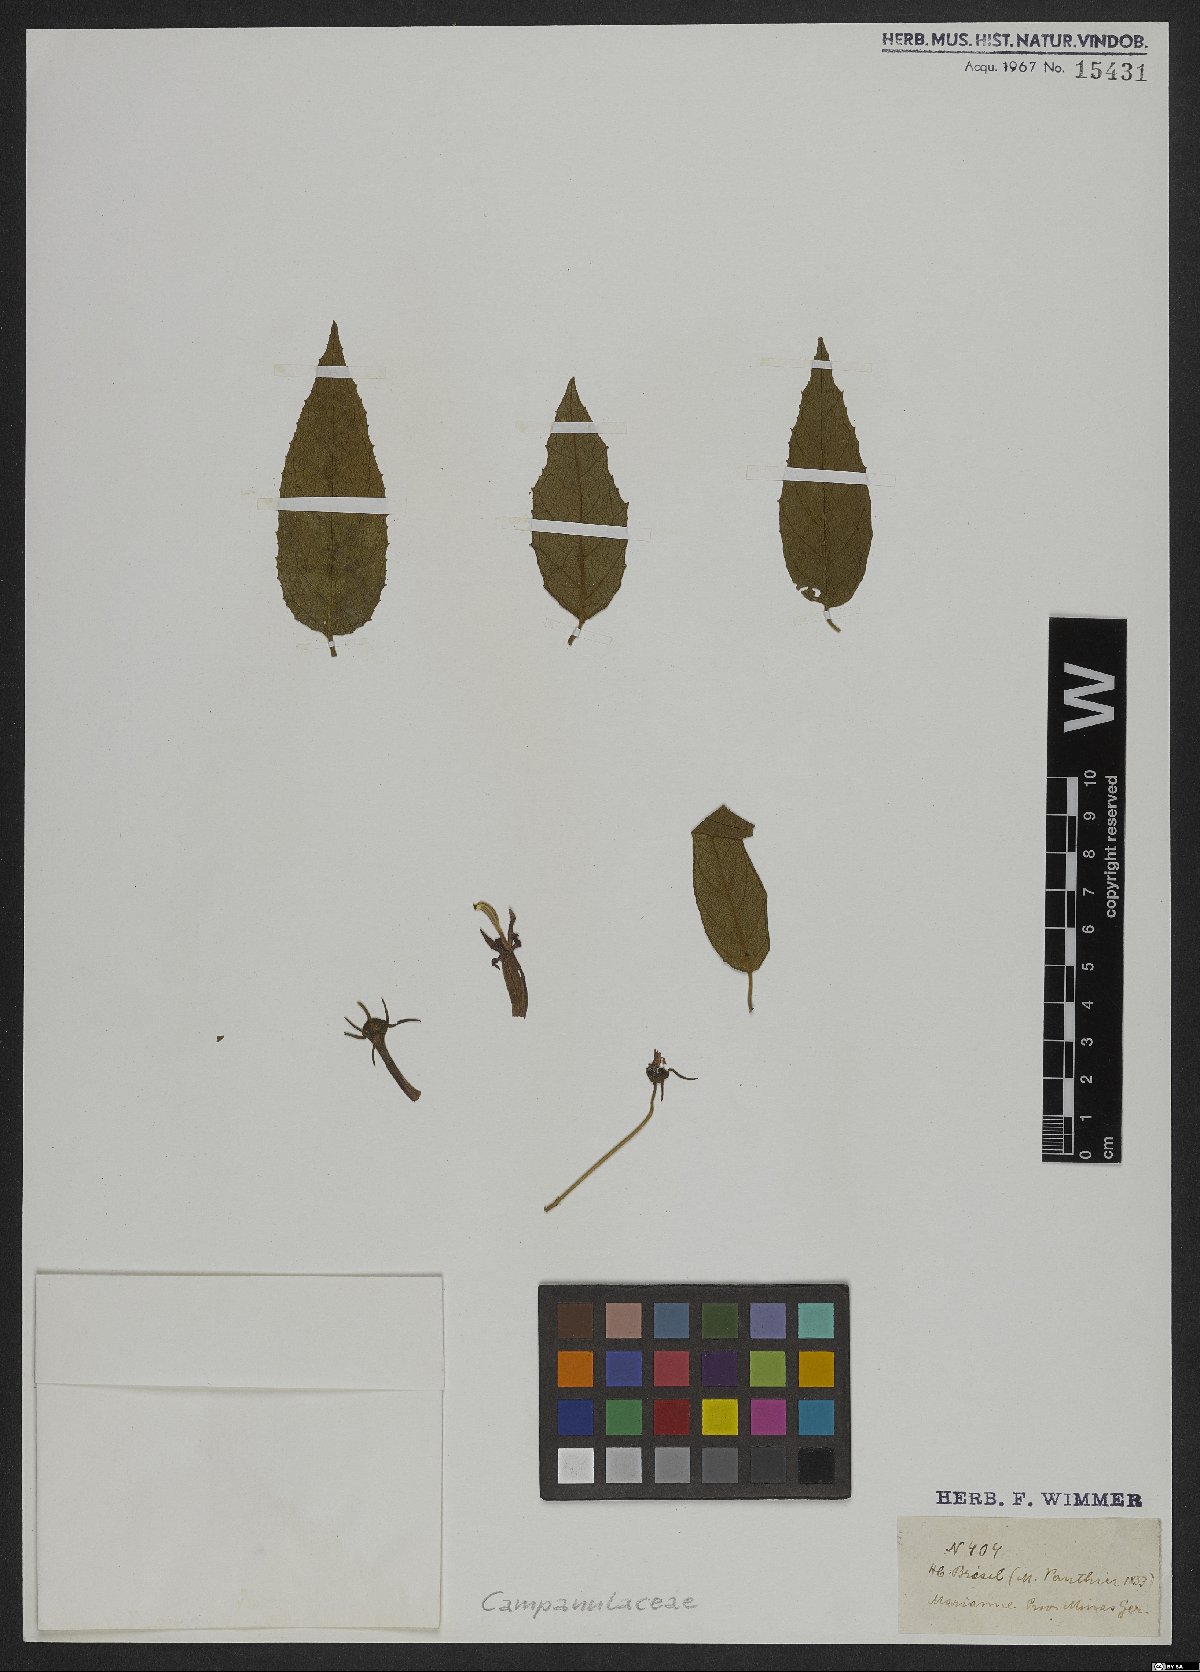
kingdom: Plantae
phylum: Tracheophyta
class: Magnoliopsida
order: Asterales
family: Campanulaceae
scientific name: Campanulaceae
